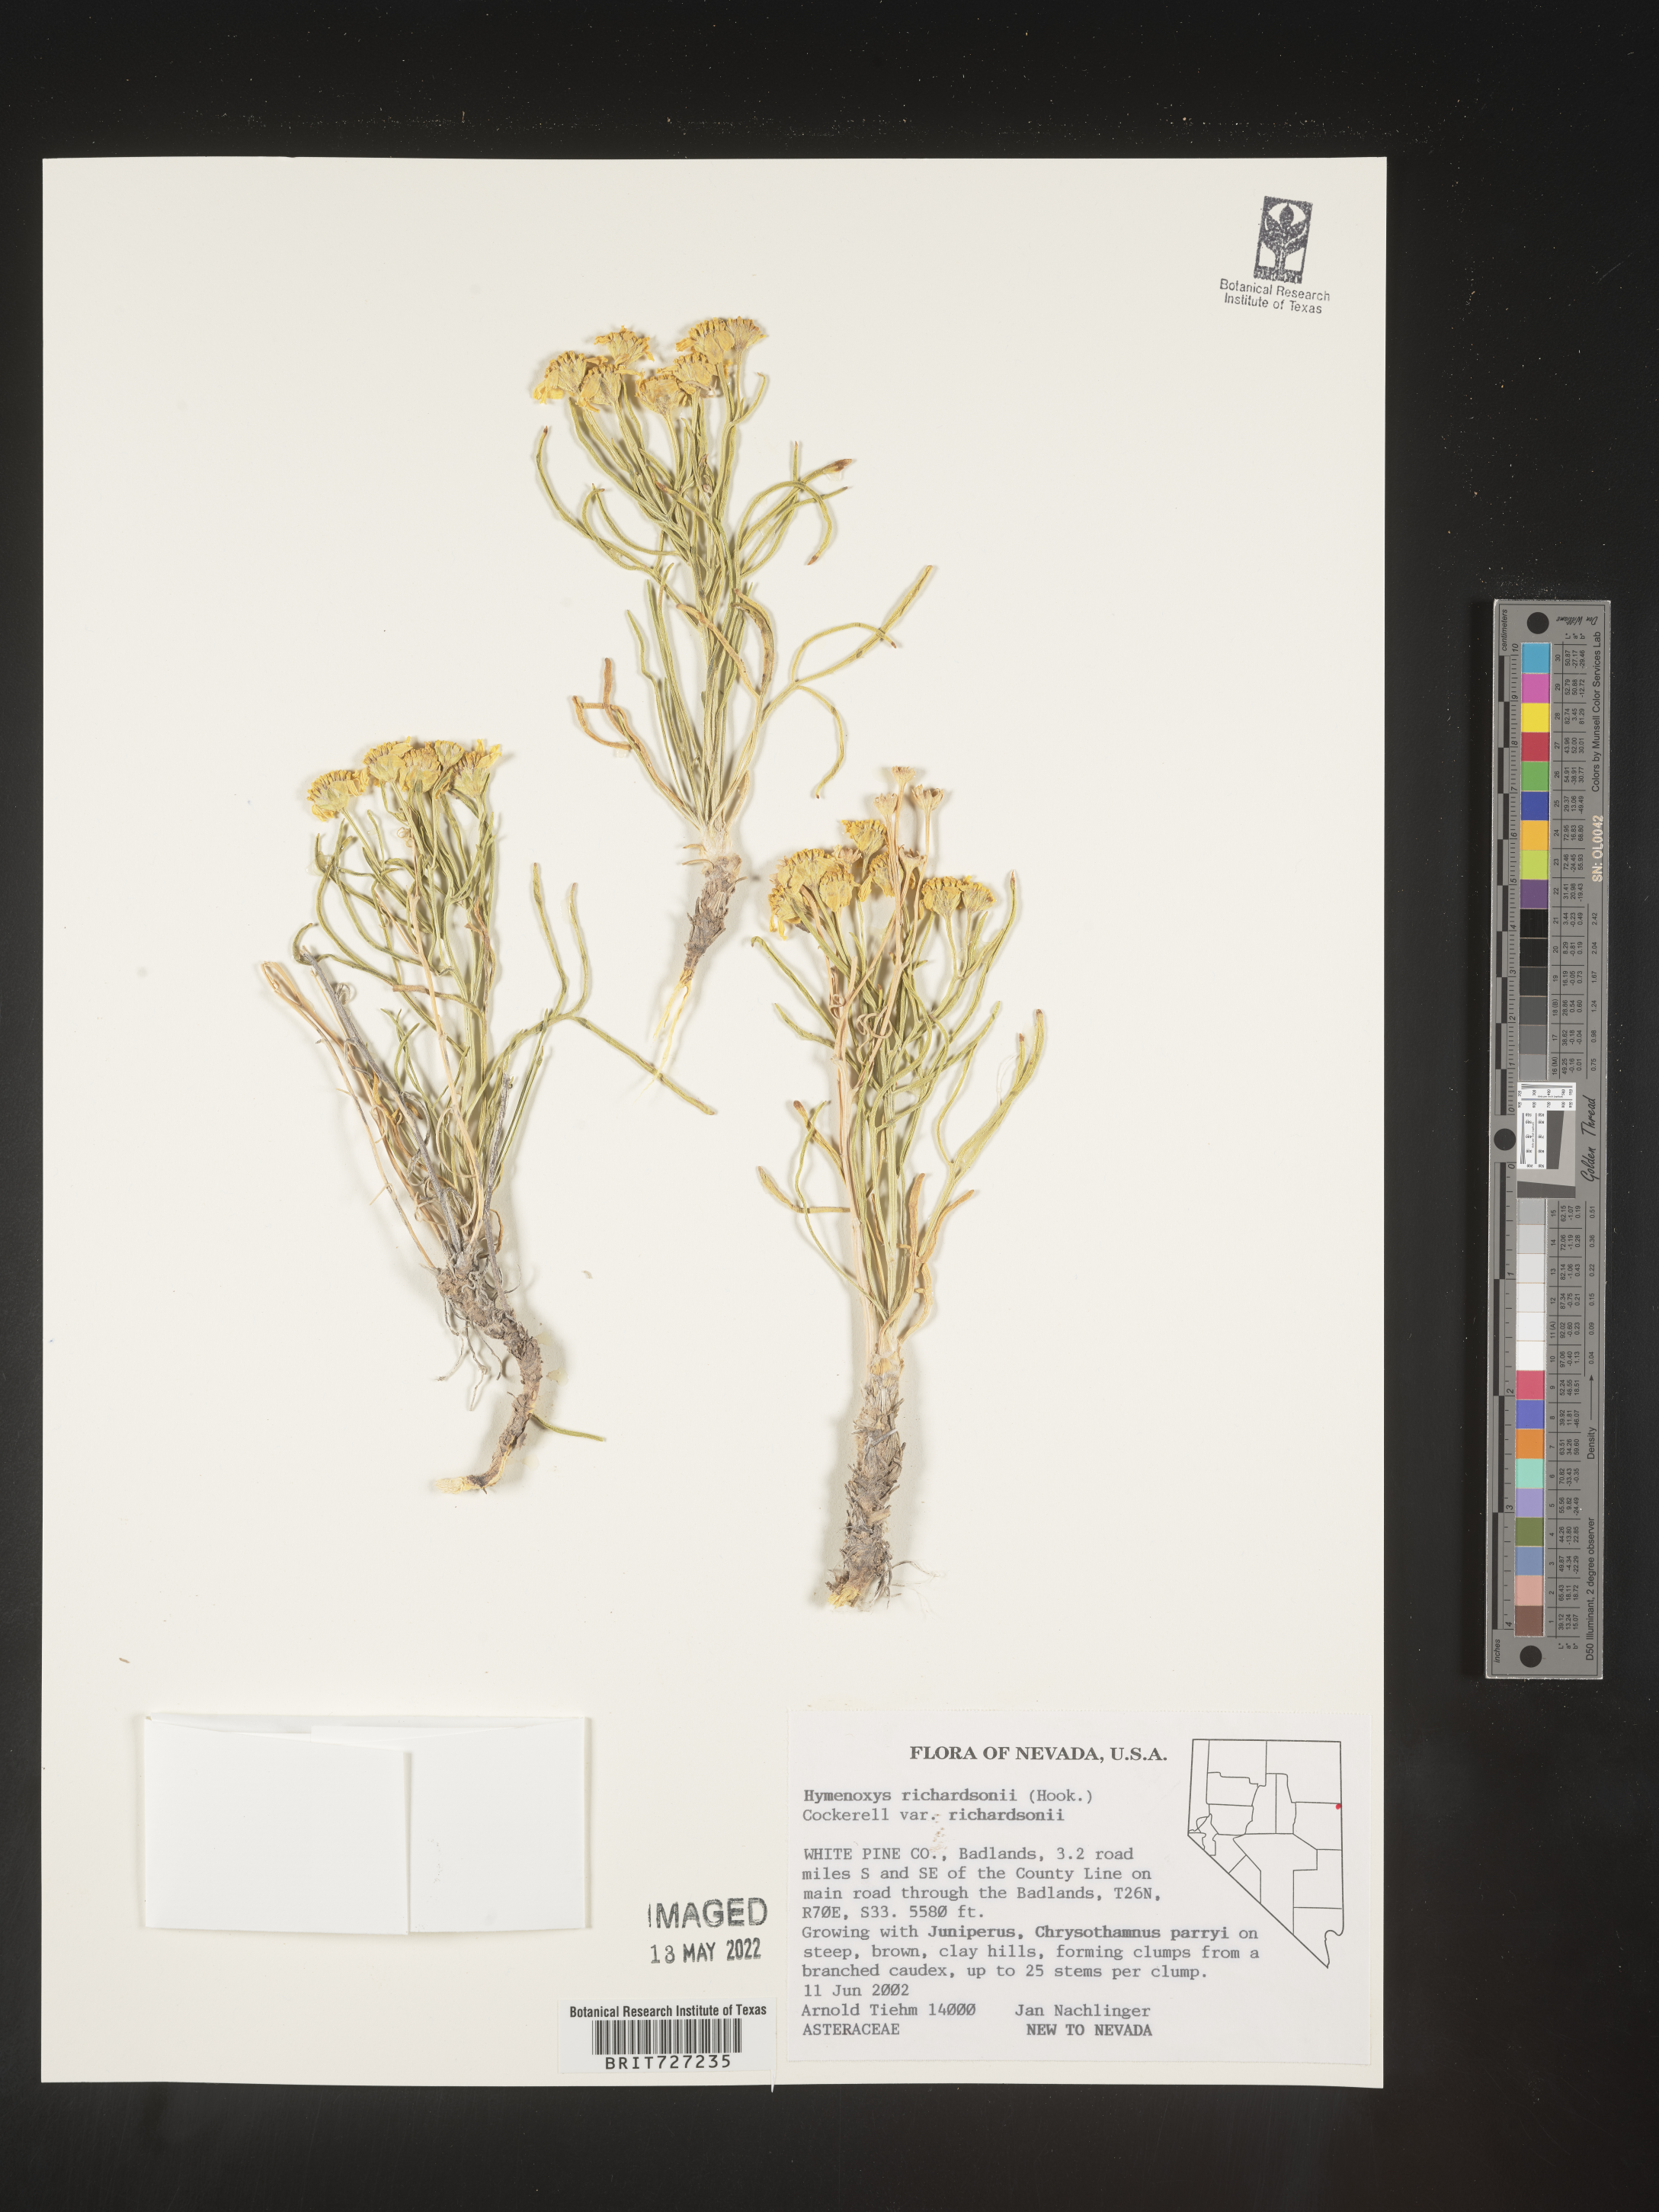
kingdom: Plantae
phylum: Tracheophyta
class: Magnoliopsida
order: Asterales
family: Asteraceae
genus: Hymenoxys
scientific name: Hymenoxys richardsonii
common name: Pingue rubberweed
